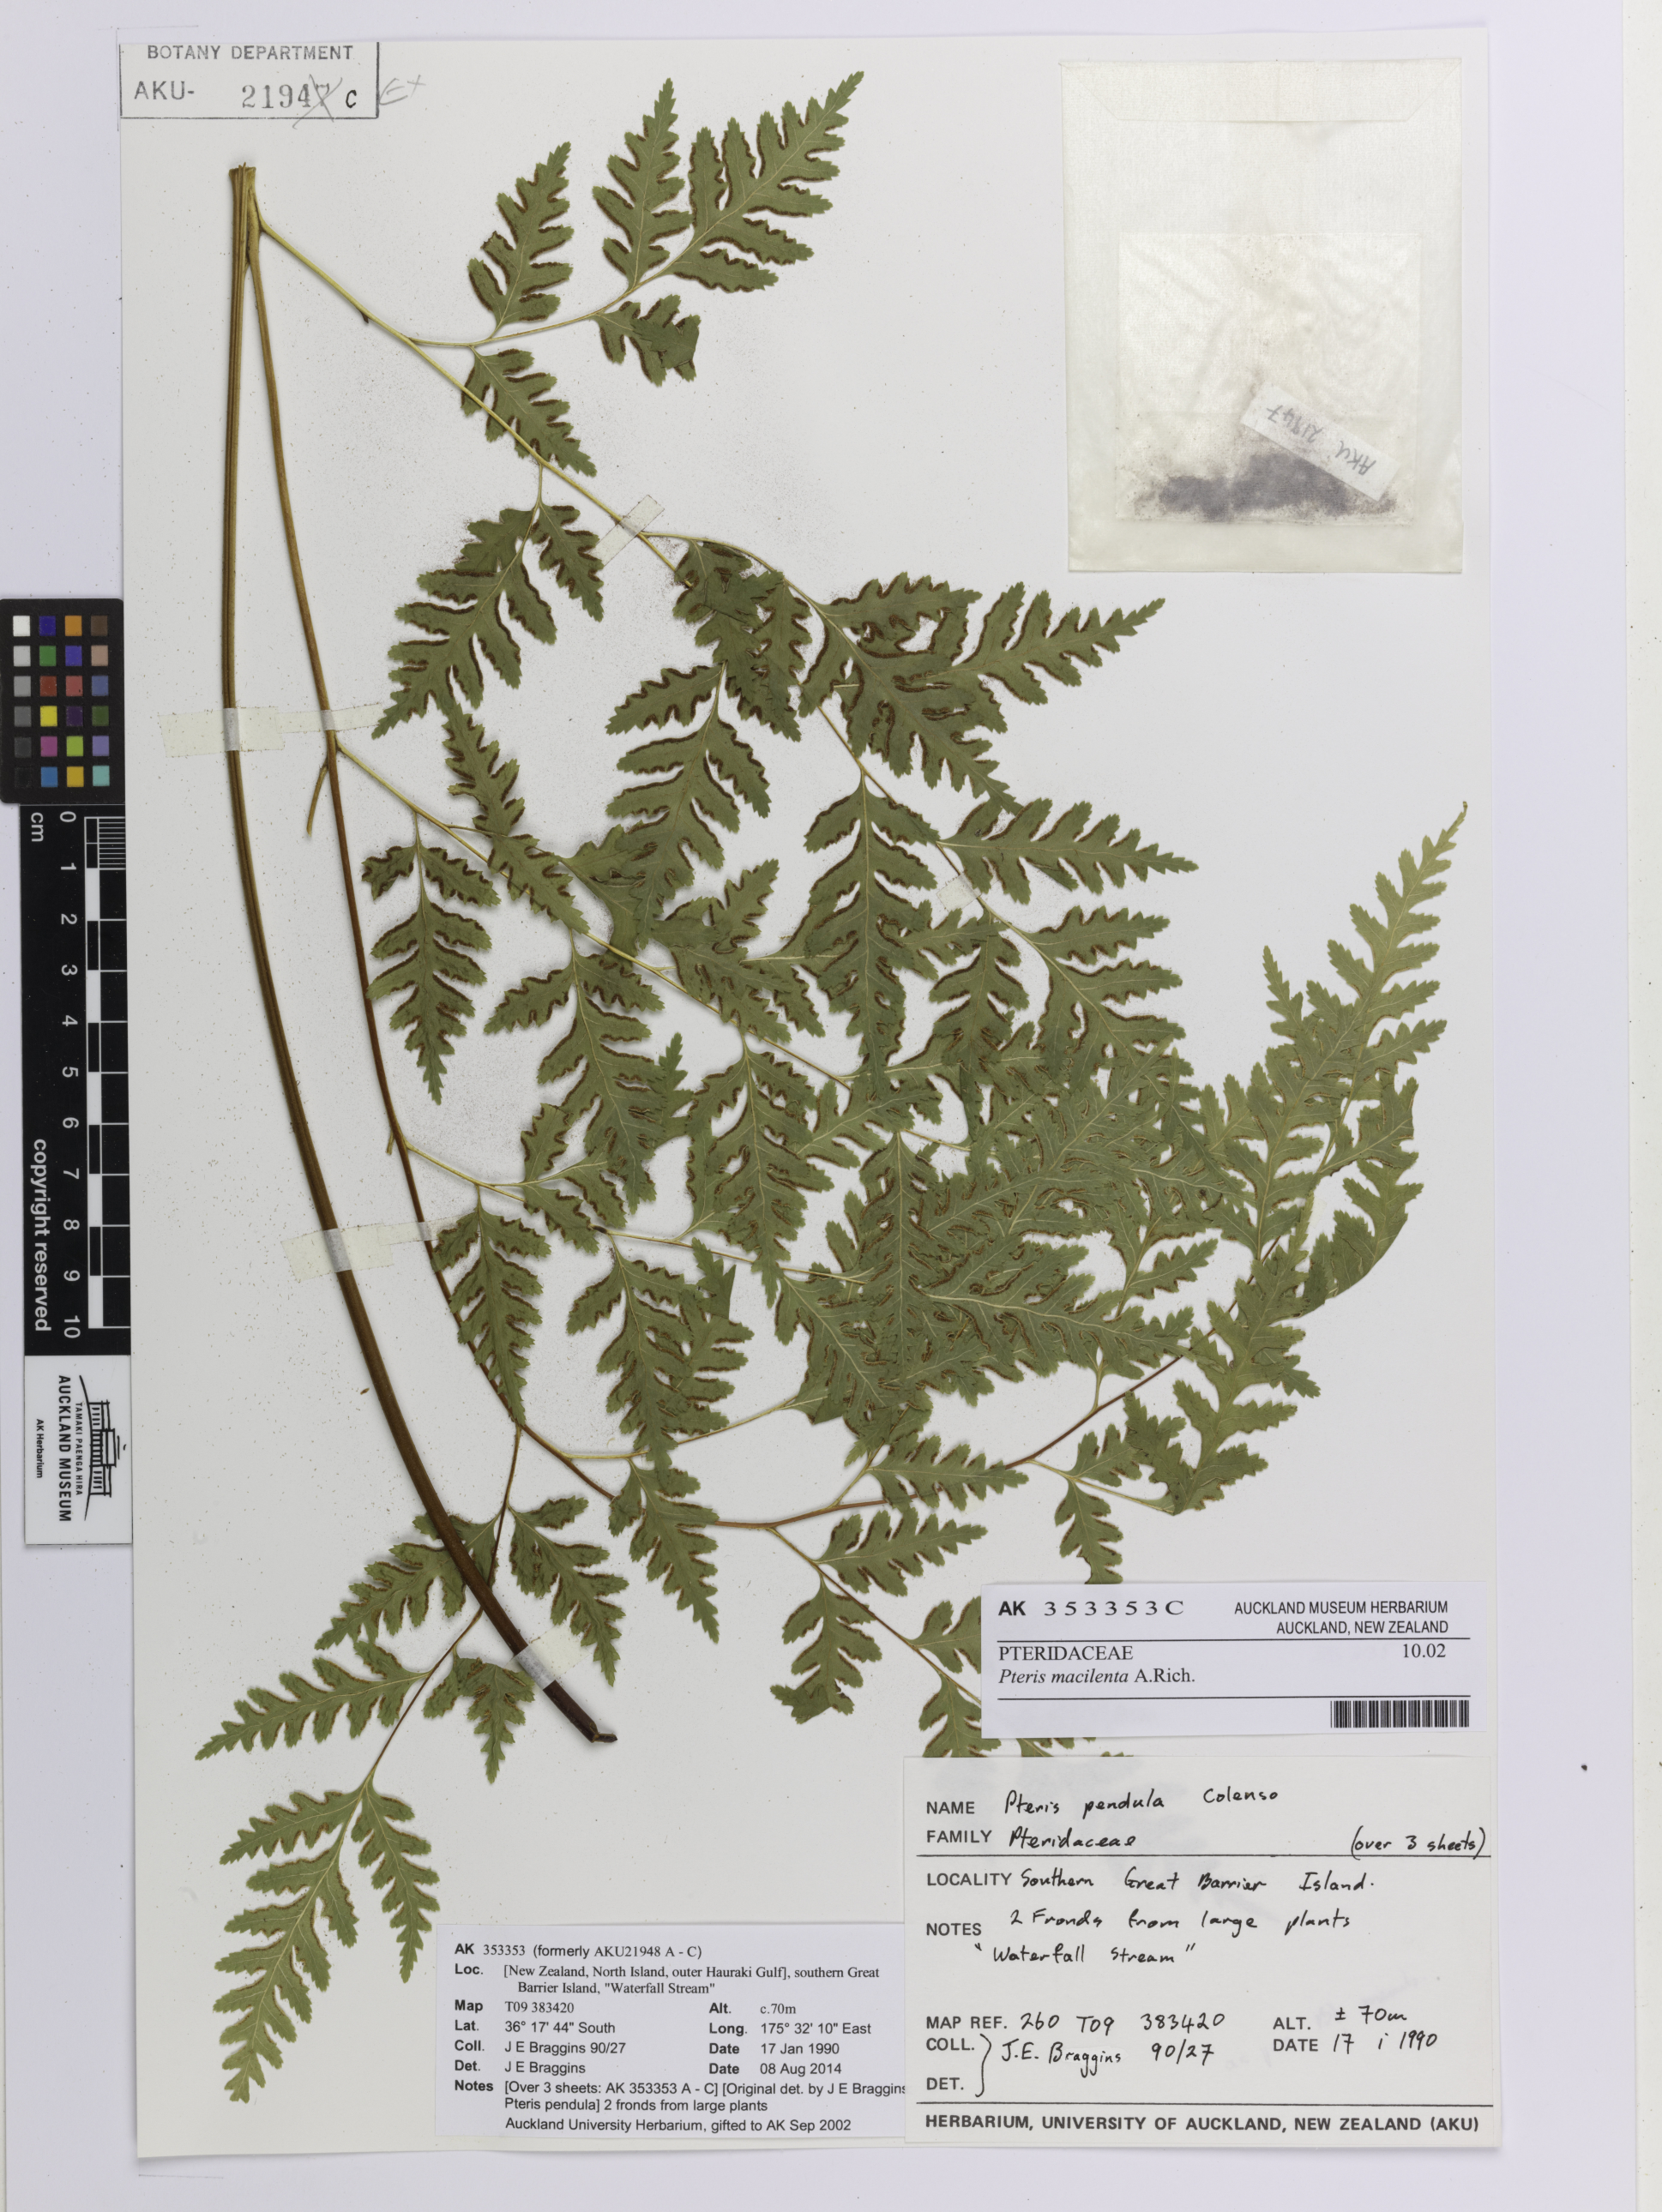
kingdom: Plantae
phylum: Tracheophyta
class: Polypodiopsida
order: Polypodiales
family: Pteridaceae
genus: Pteris
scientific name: Pteris macilenta
